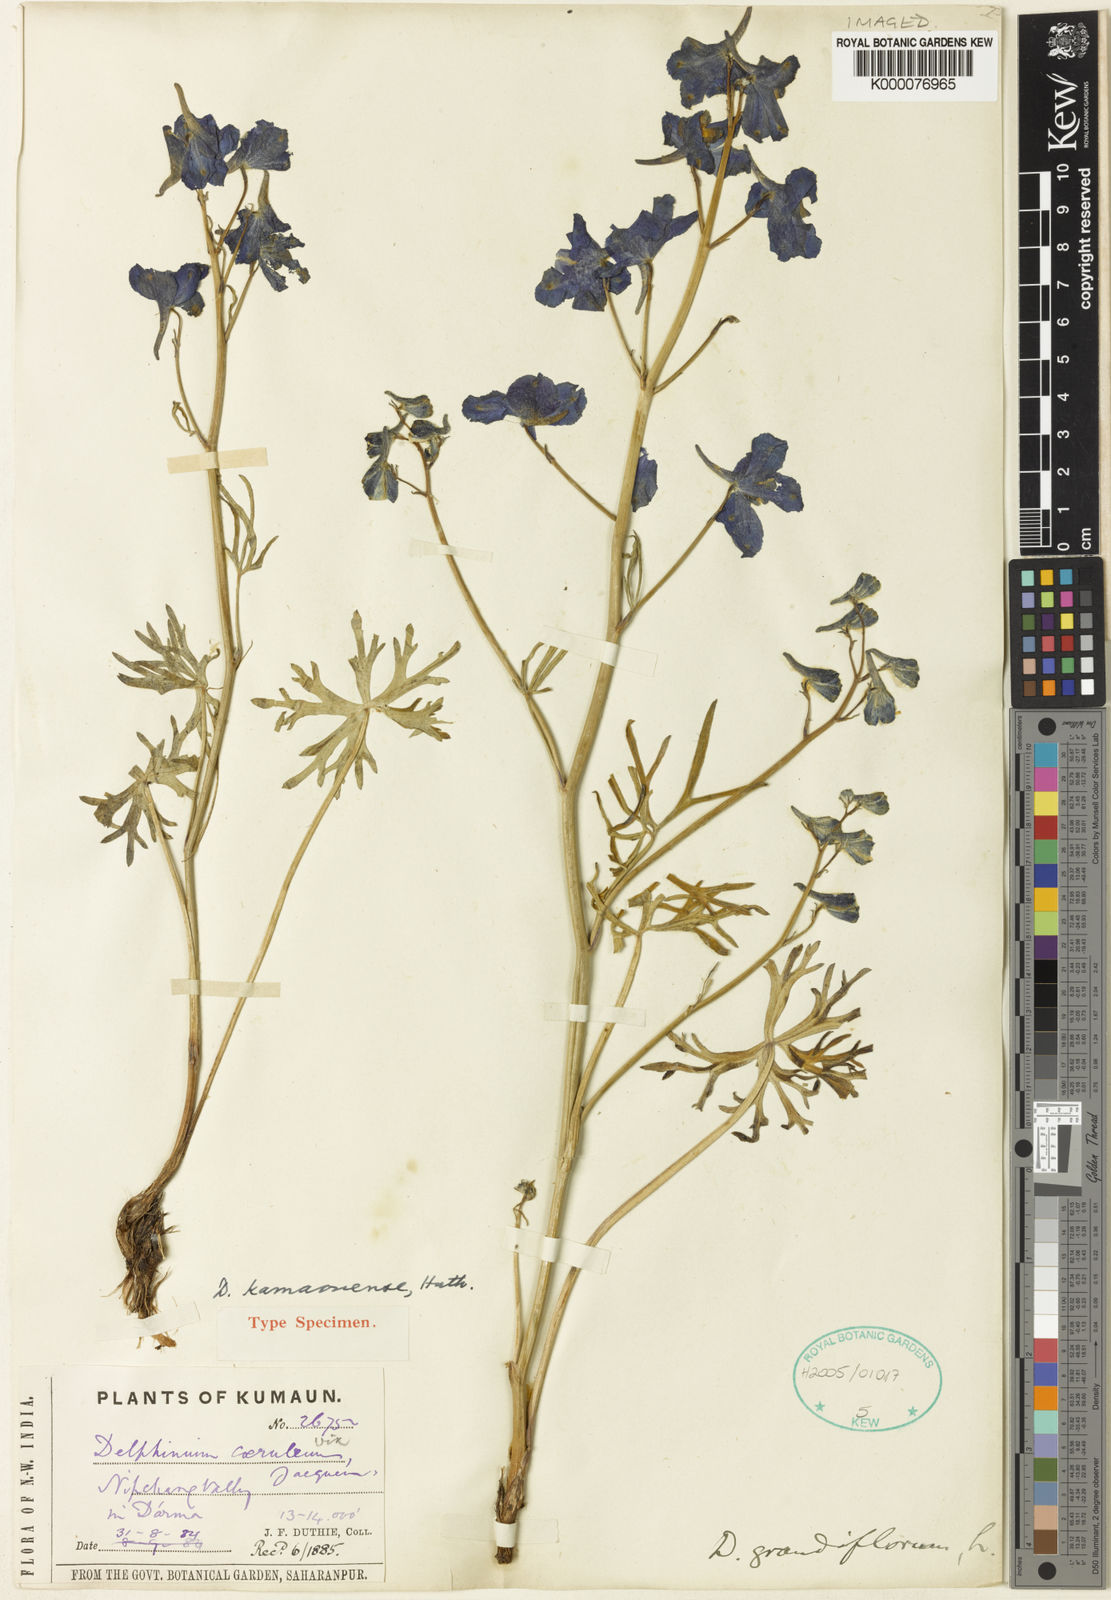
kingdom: Plantae
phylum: Tracheophyta
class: Magnoliopsida
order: Ranunculales
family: Ranunculaceae
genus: Delphinium
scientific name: Delphinium kamaonense
